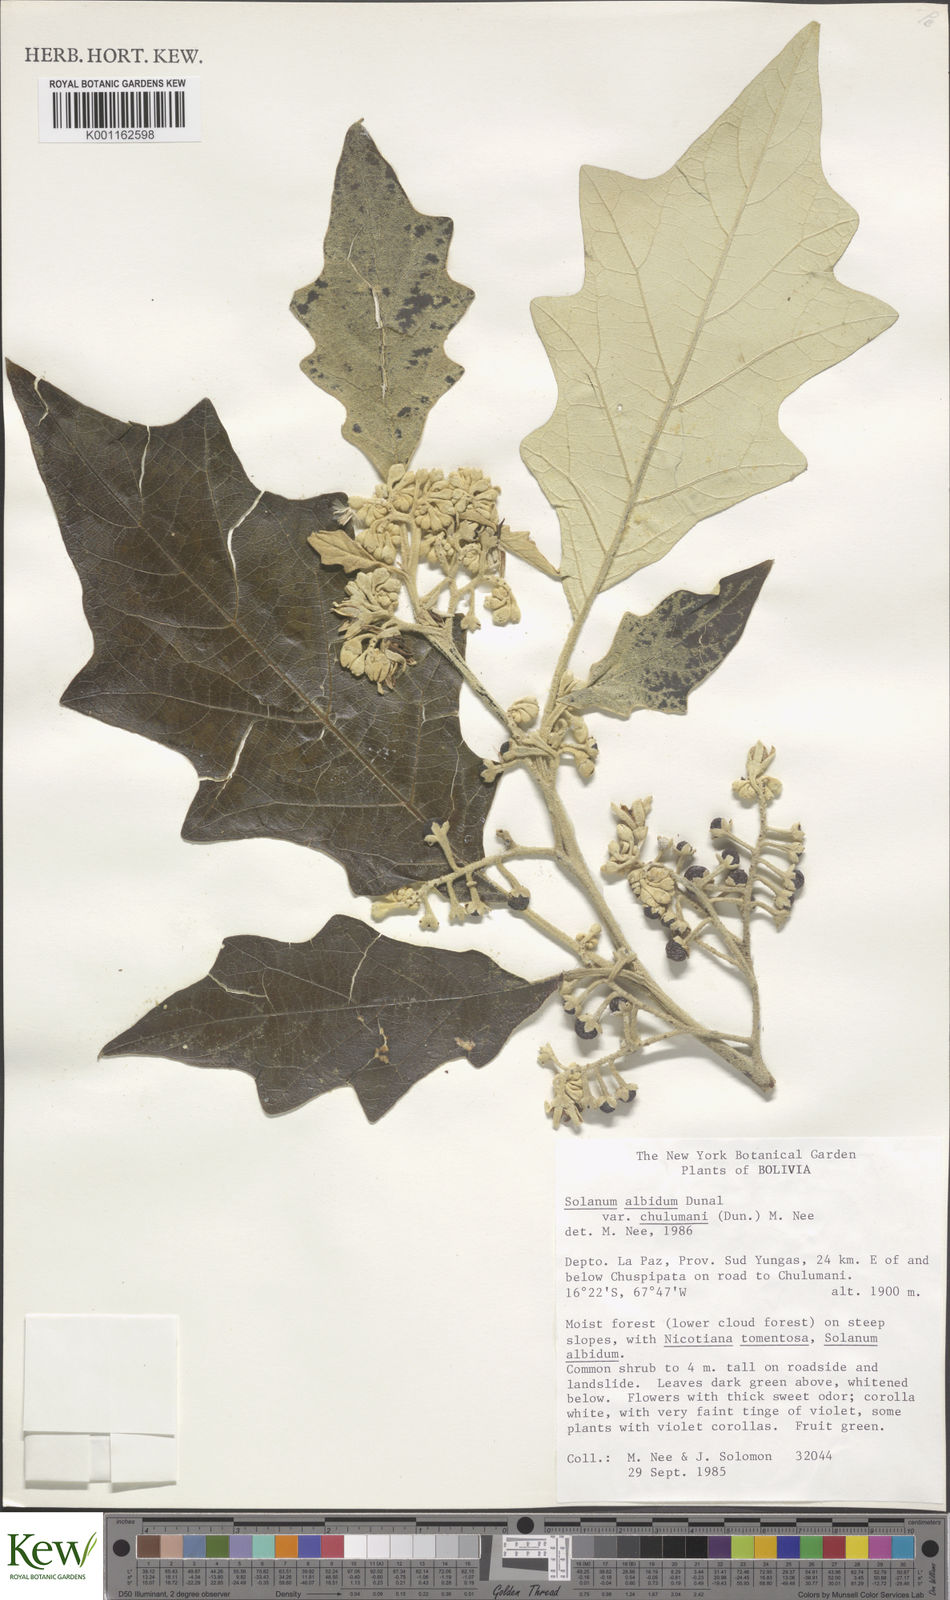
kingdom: Plantae
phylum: Tracheophyta
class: Magnoliopsida
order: Solanales
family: Solanaceae
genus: Solanum
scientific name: Solanum albidum
